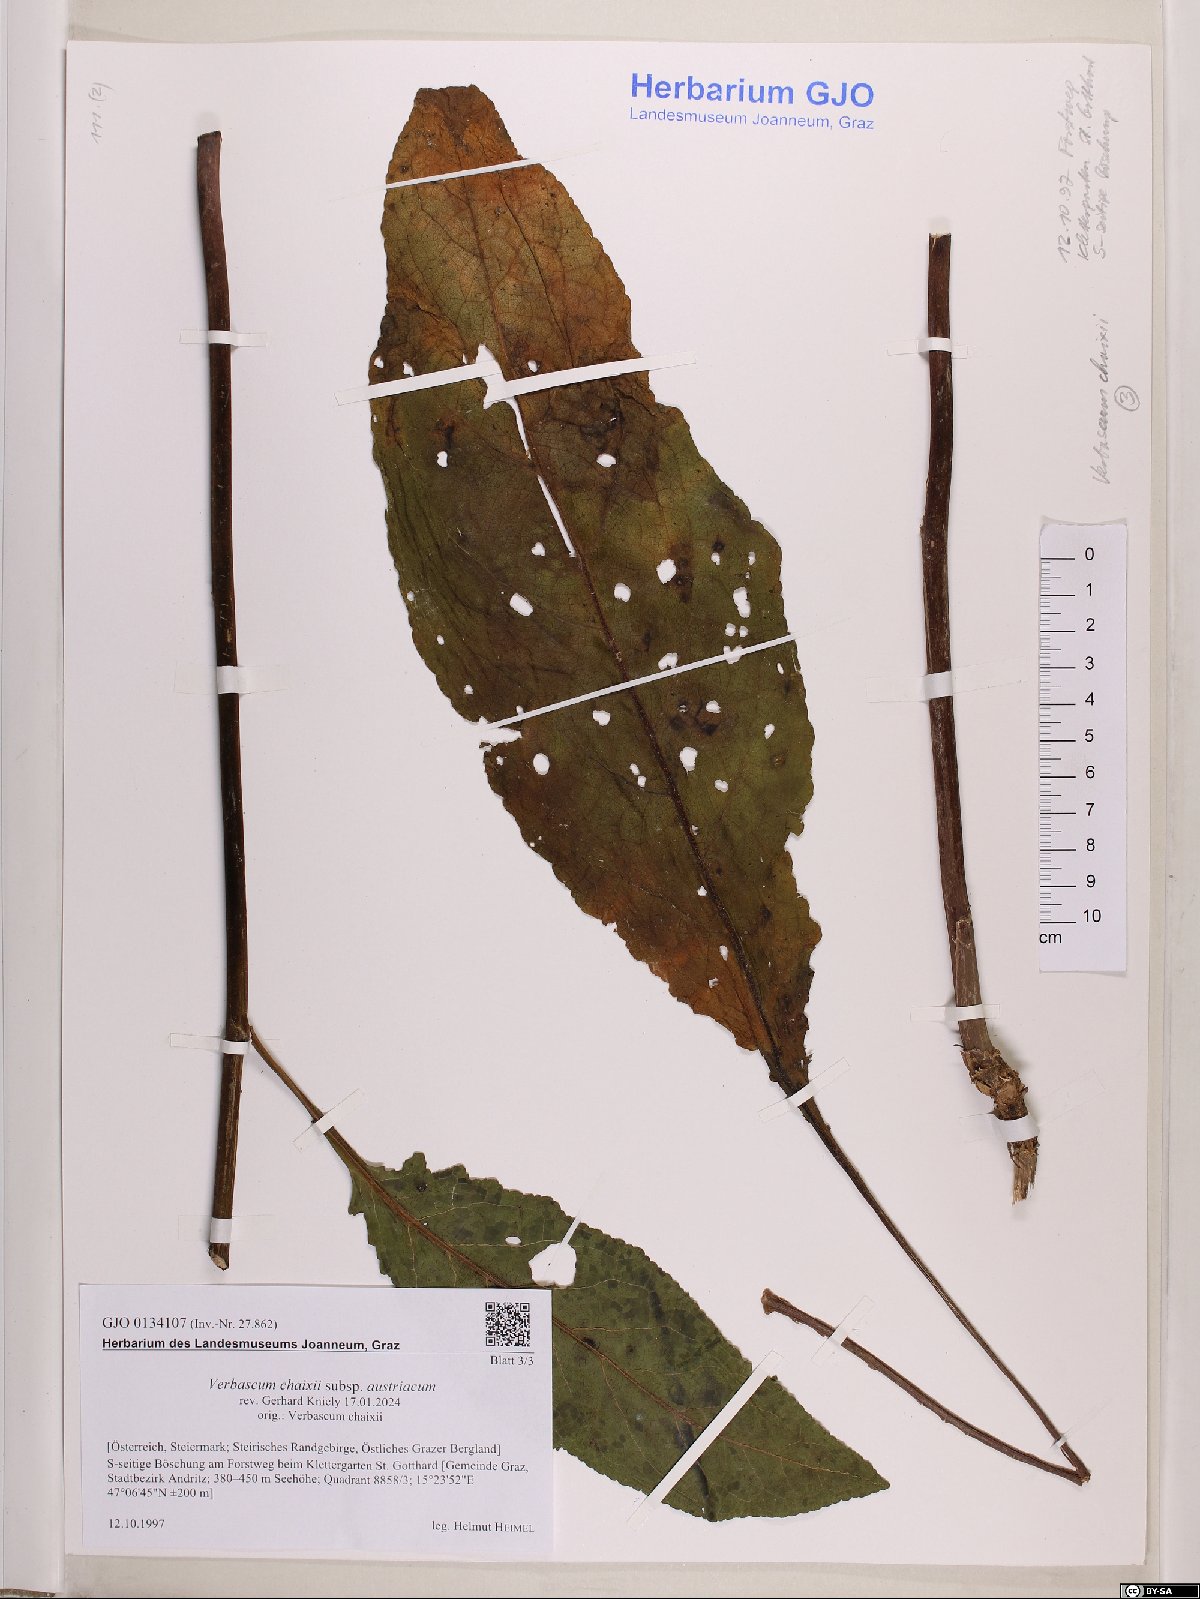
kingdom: Plantae
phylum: Tracheophyta
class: Magnoliopsida
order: Lamiales
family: Scrophulariaceae
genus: Verbascum
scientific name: Verbascum chaixii
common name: Nettle-leaved mullein
